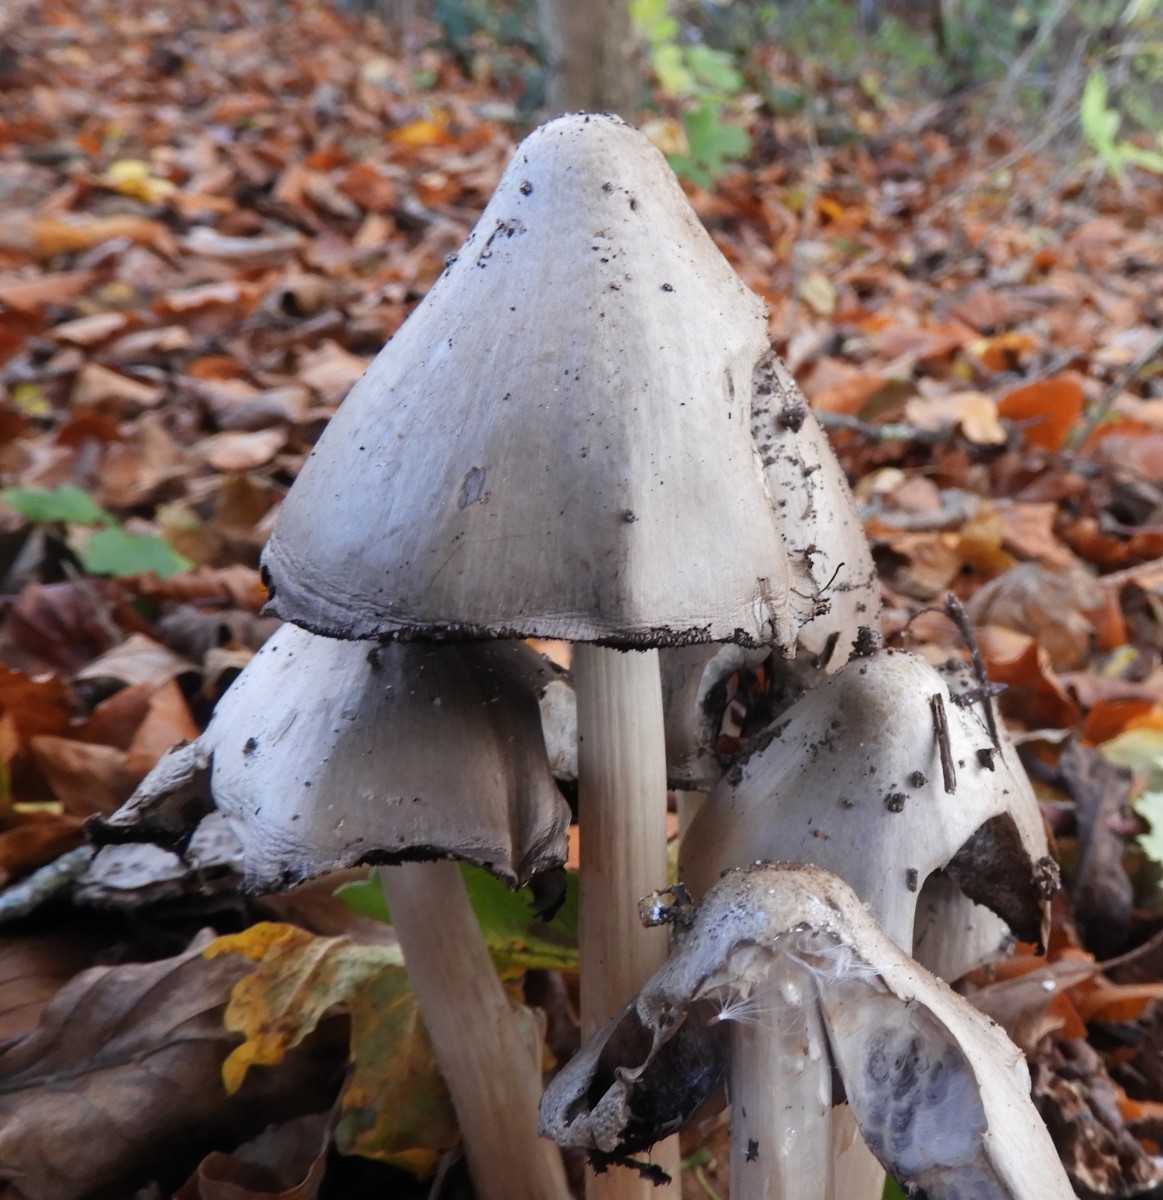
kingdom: Fungi
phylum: Basidiomycota
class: Agaricomycetes
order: Agaricales
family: Psathyrellaceae
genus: Coprinopsis
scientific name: Coprinopsis atramentaria
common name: almindelig blækhat
